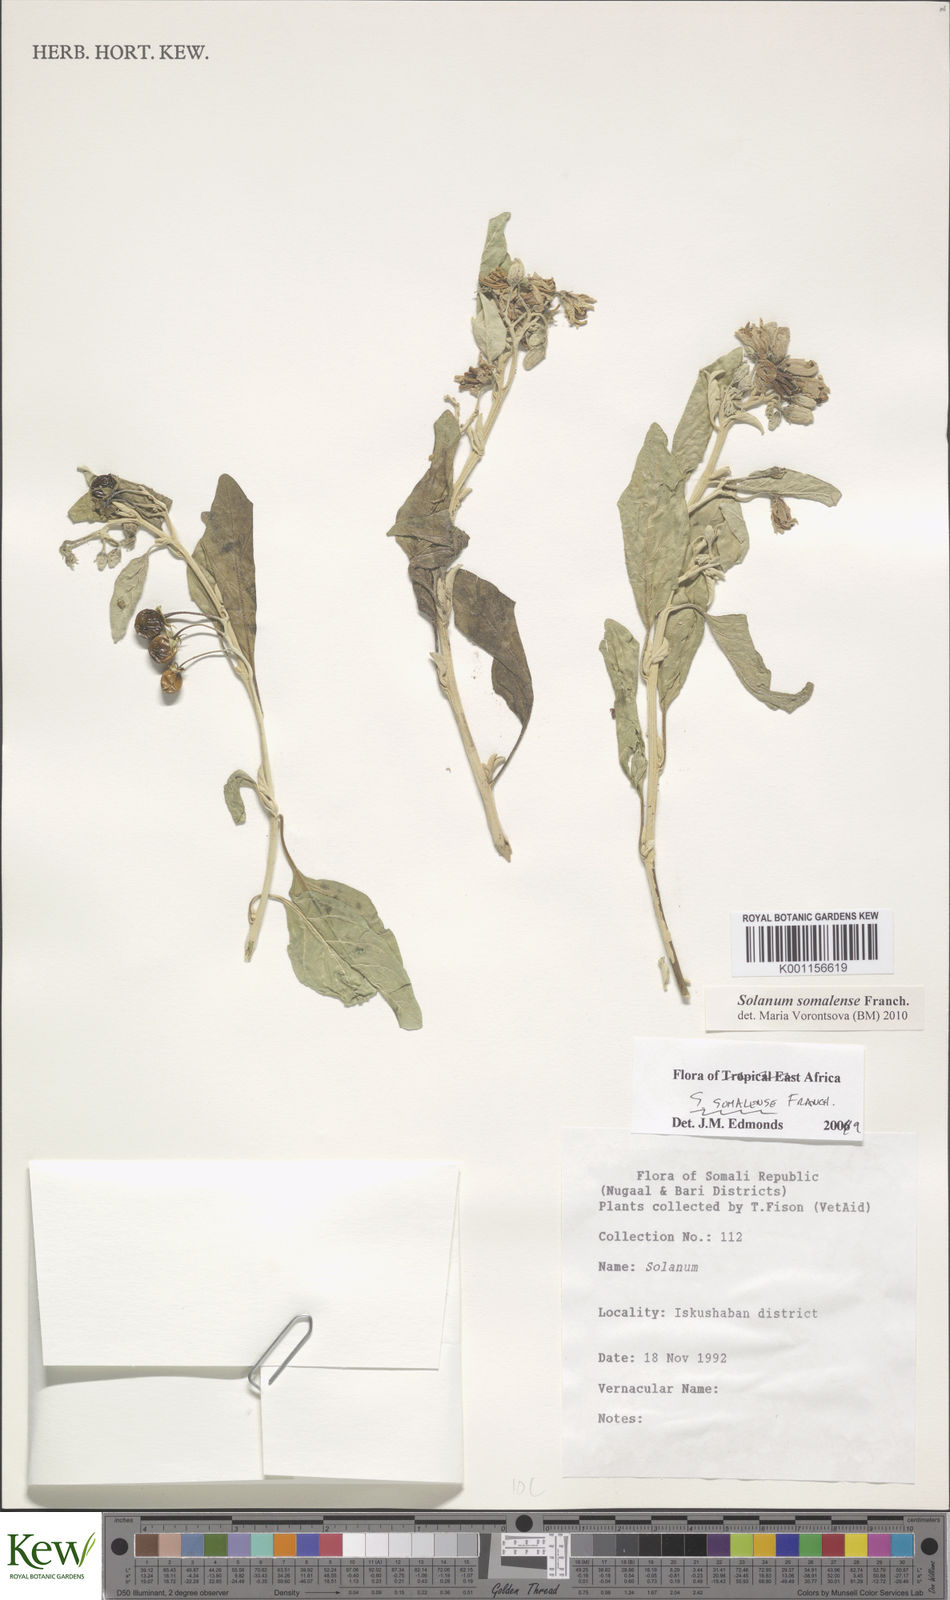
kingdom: Plantae
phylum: Tracheophyta
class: Magnoliopsida
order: Solanales
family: Solanaceae
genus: Solanum
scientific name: Solanum somalense
